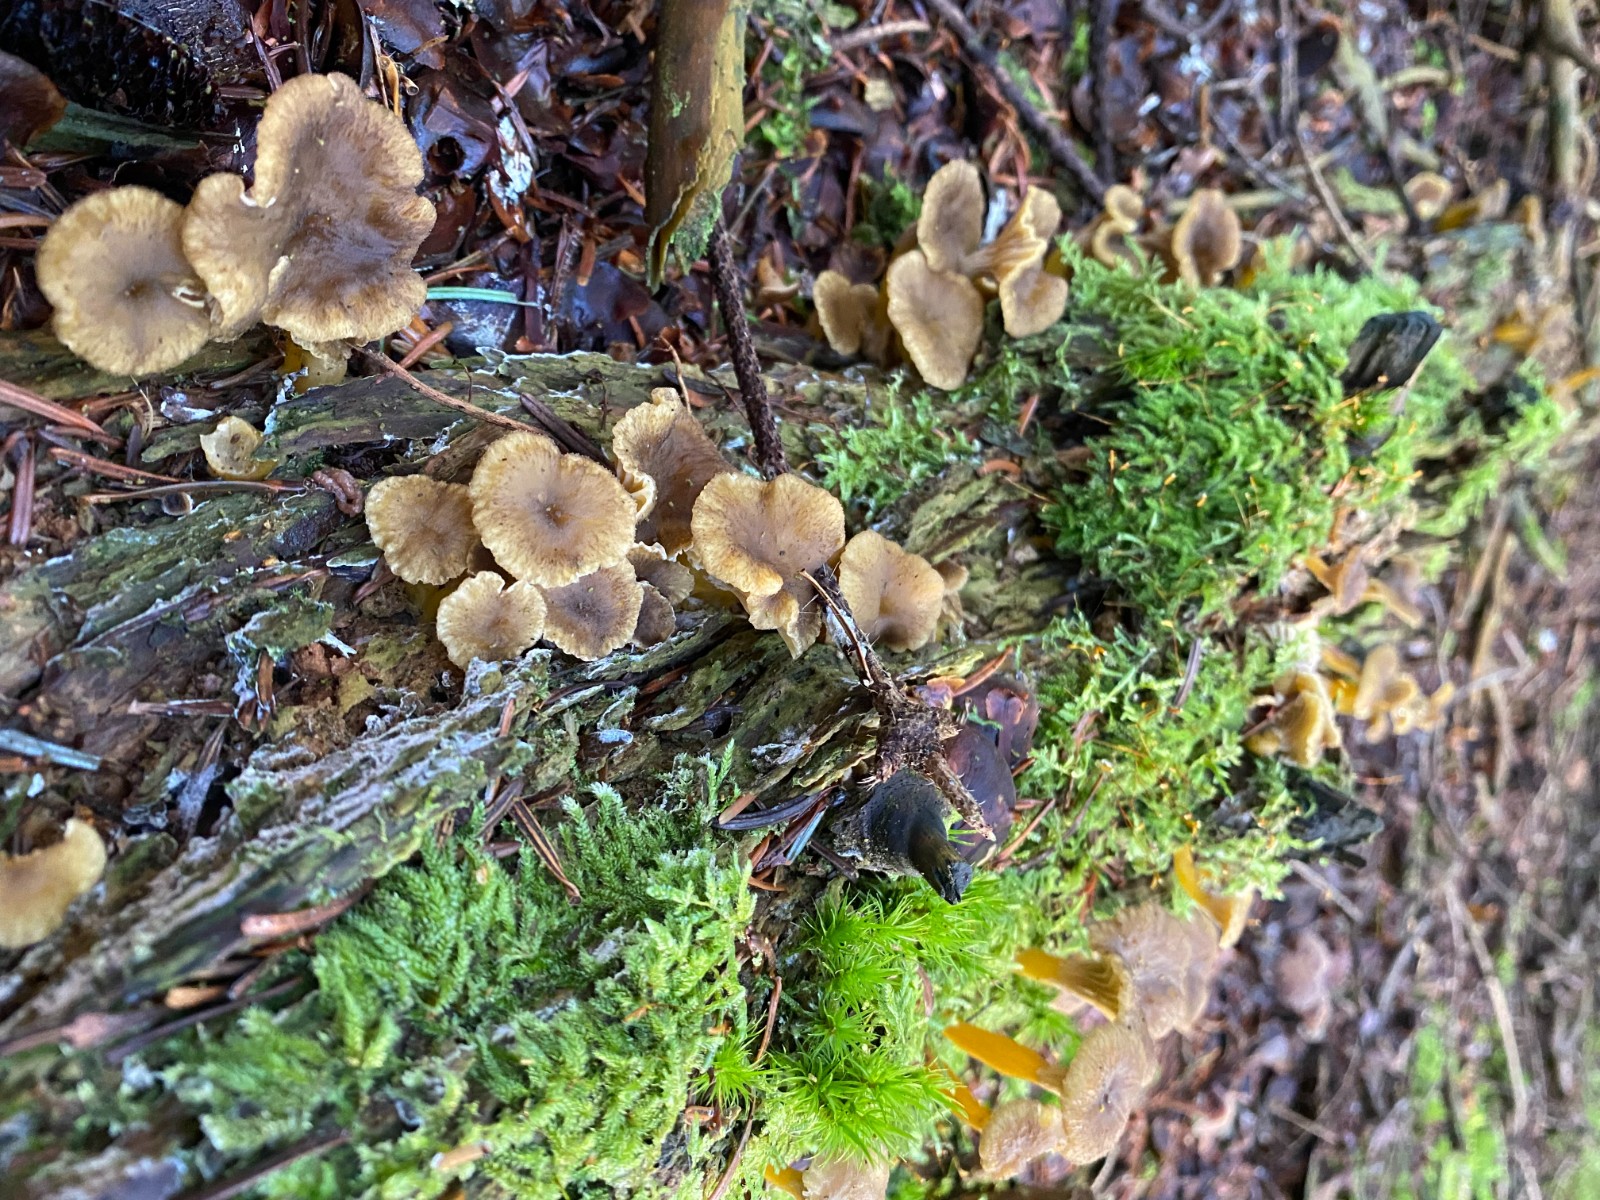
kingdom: Fungi
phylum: Basidiomycota
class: Agaricomycetes
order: Cantharellales
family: Hydnaceae
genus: Craterellus
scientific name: Craterellus tubaeformis
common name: tragt-kantarel
